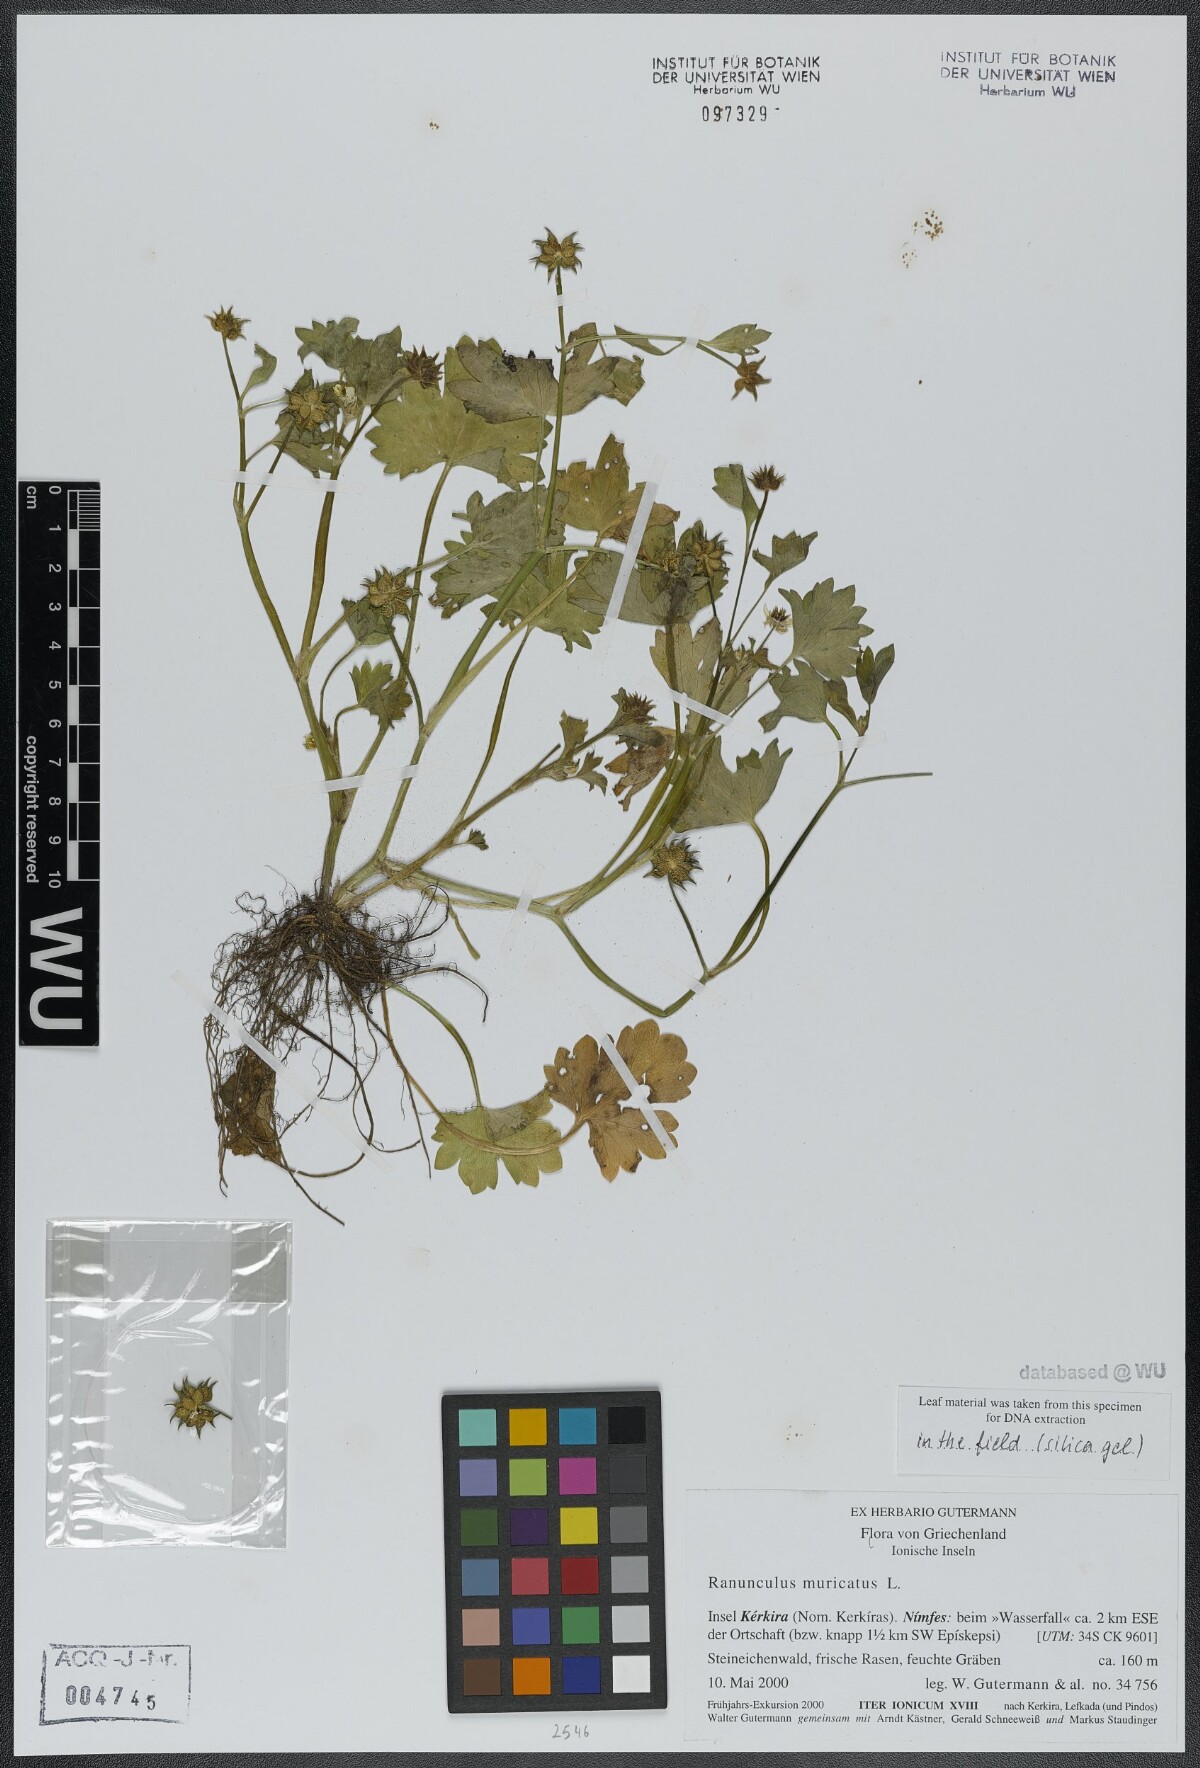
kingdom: Plantae
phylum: Tracheophyta
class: Magnoliopsida
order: Ranunculales
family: Ranunculaceae
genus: Ranunculus
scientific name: Ranunculus muricatus
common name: Rough-fruited buttercup
